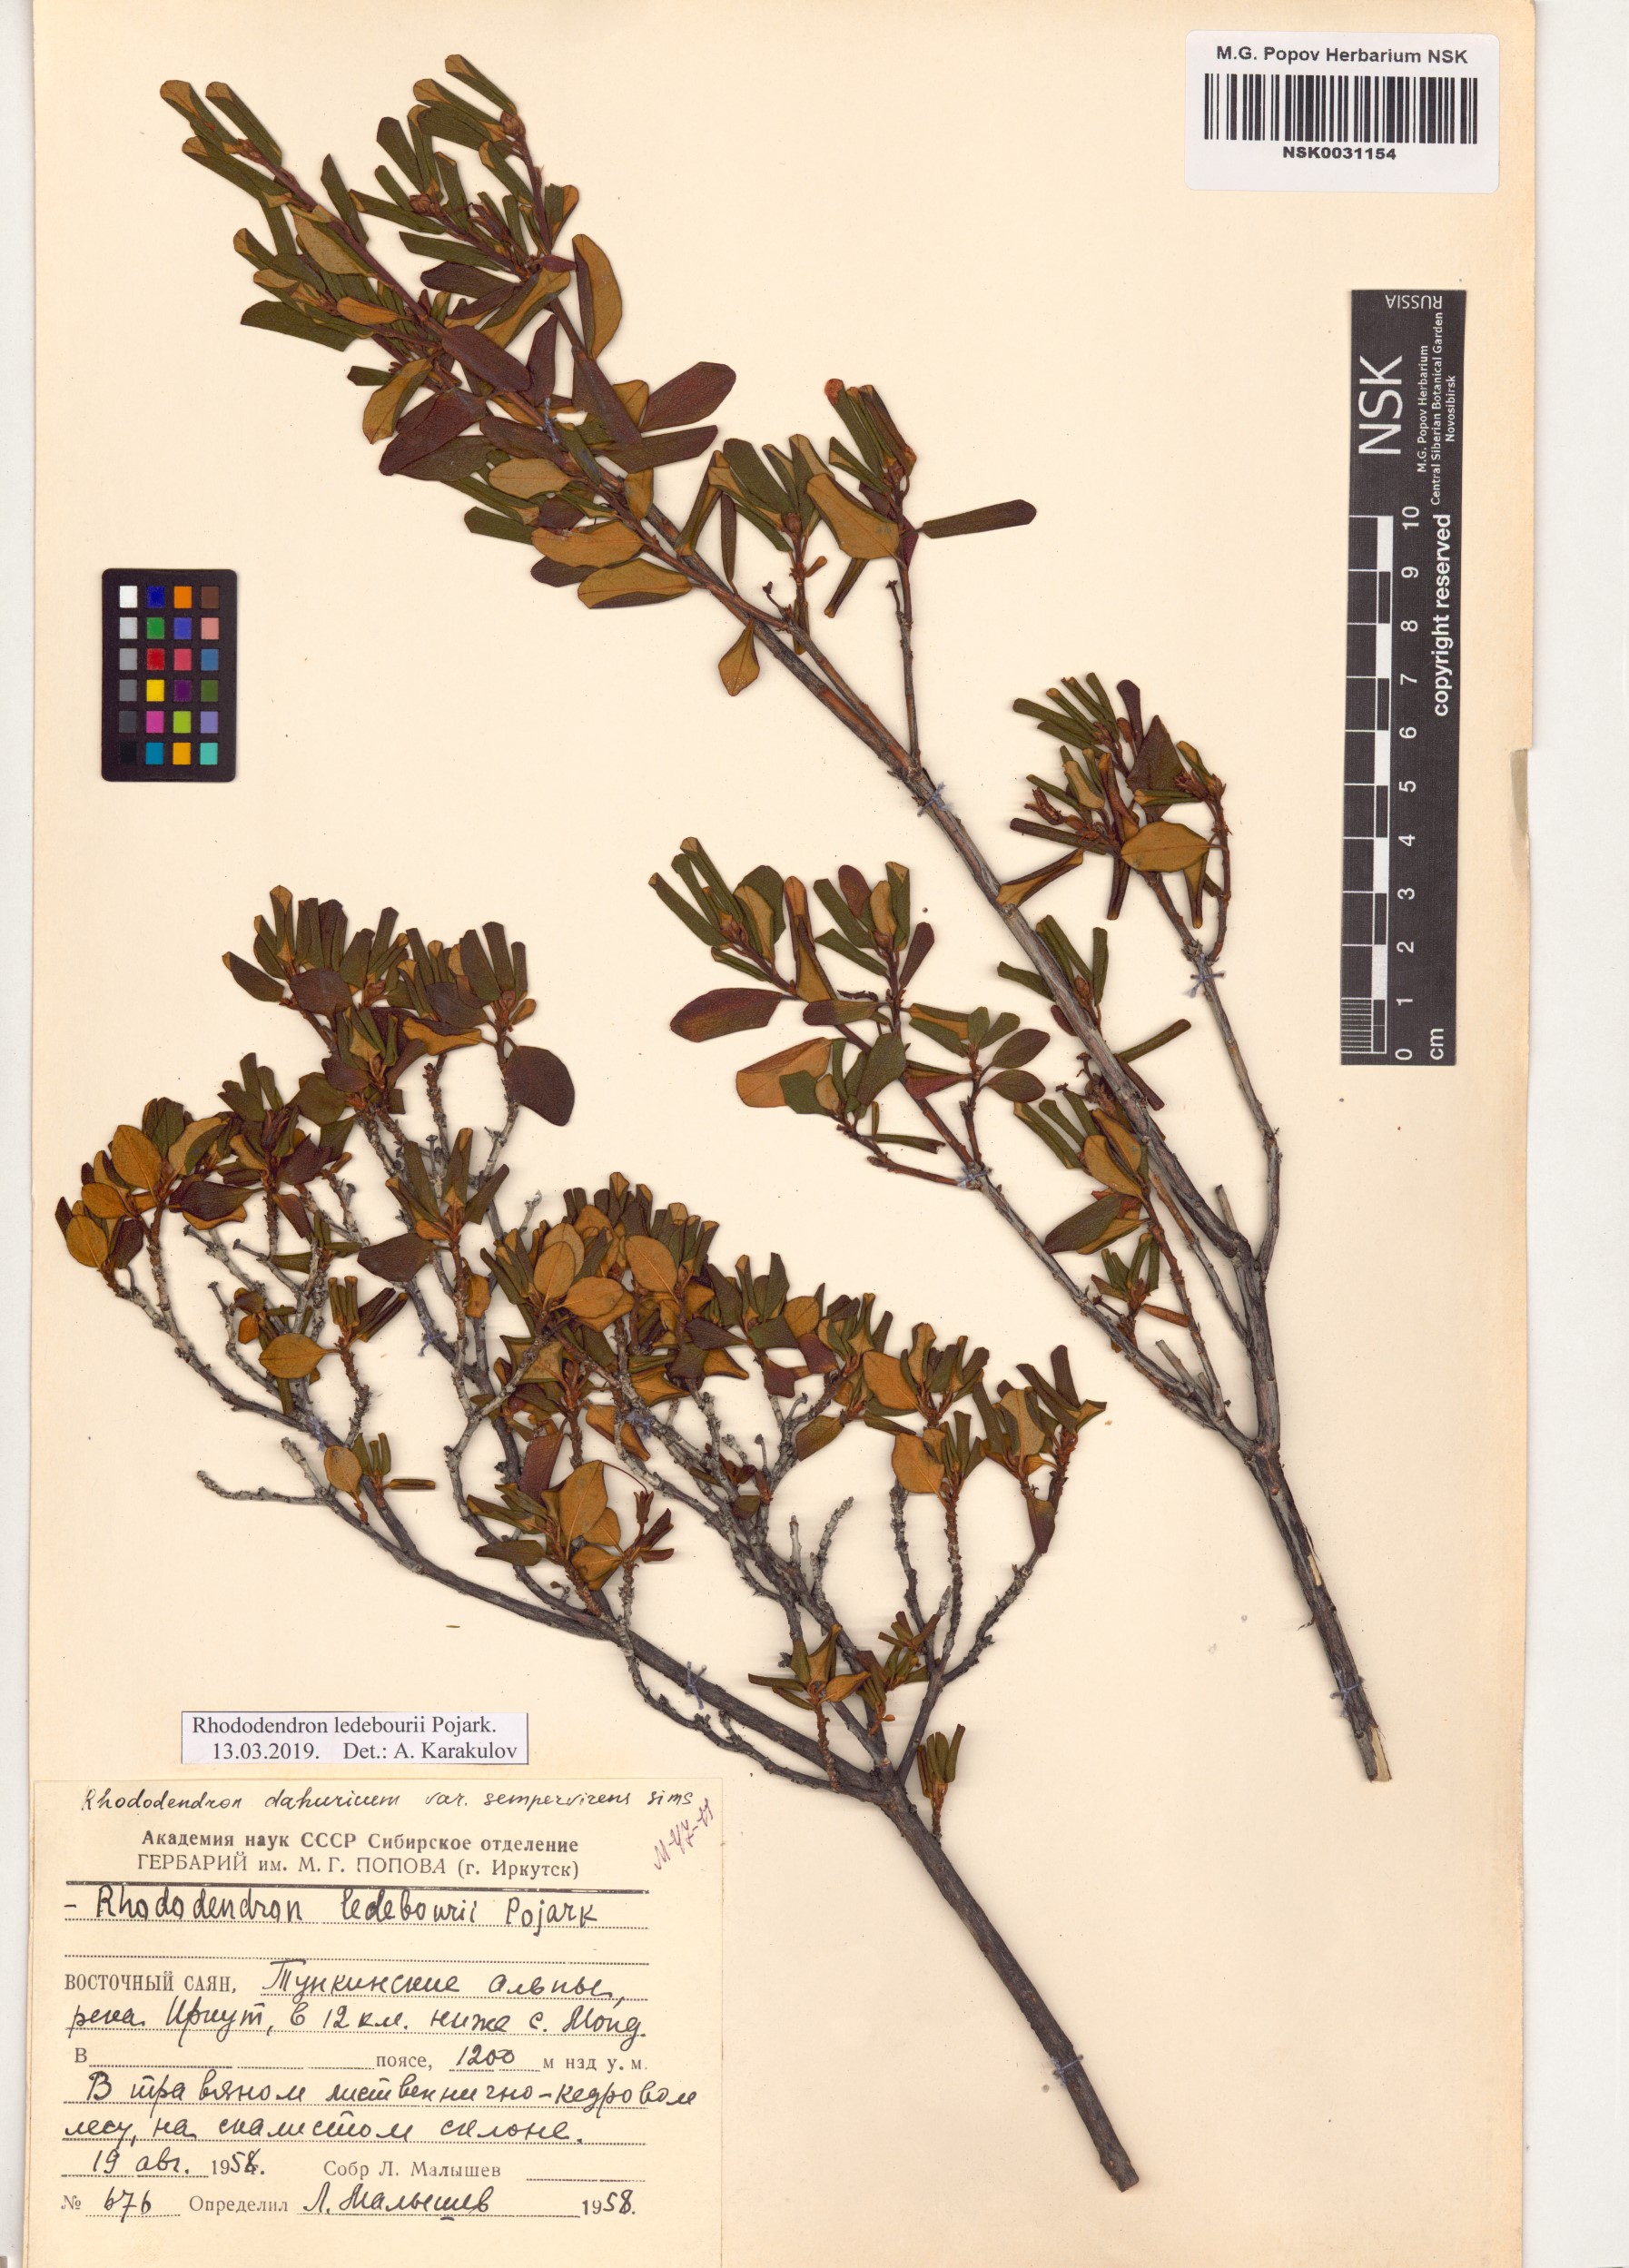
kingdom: Plantae
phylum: Tracheophyta
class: Magnoliopsida
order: Ericales
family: Ericaceae
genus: Rhododendron
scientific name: Rhododendron dauricum
